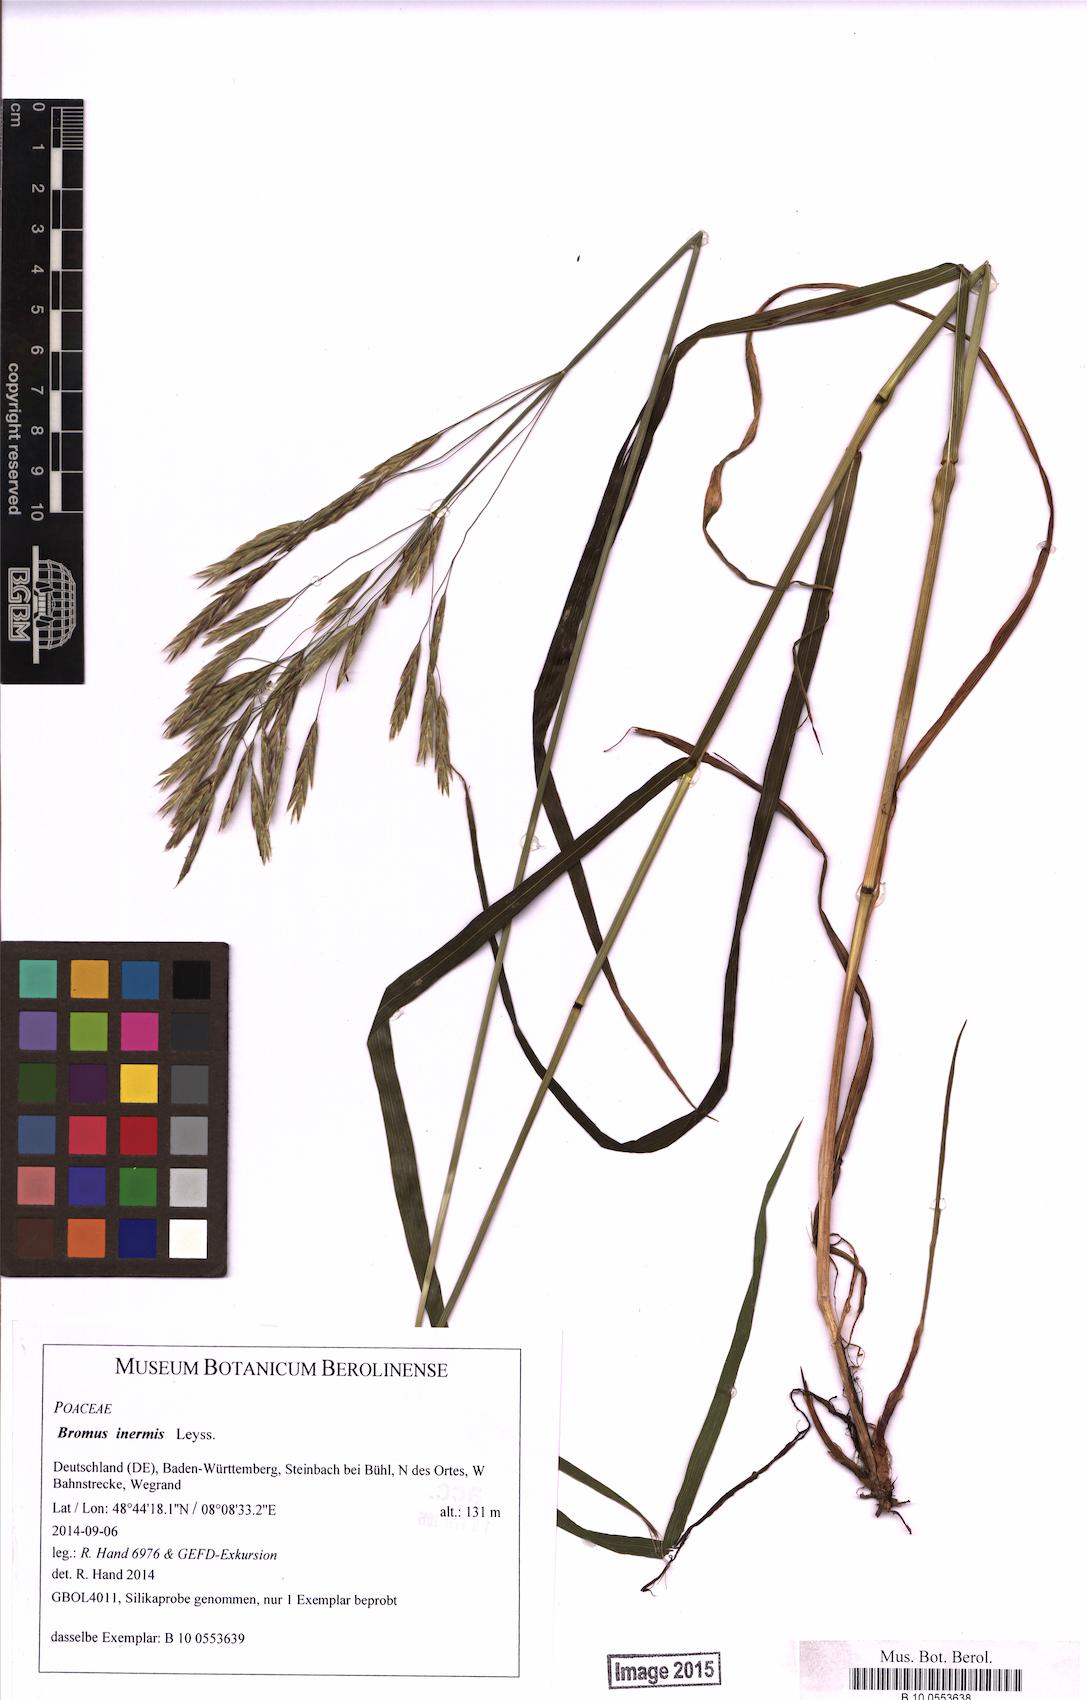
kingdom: Plantae
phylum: Tracheophyta
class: Liliopsida
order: Poales
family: Poaceae
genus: Bromus
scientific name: Bromus inermis
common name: Smooth brome
